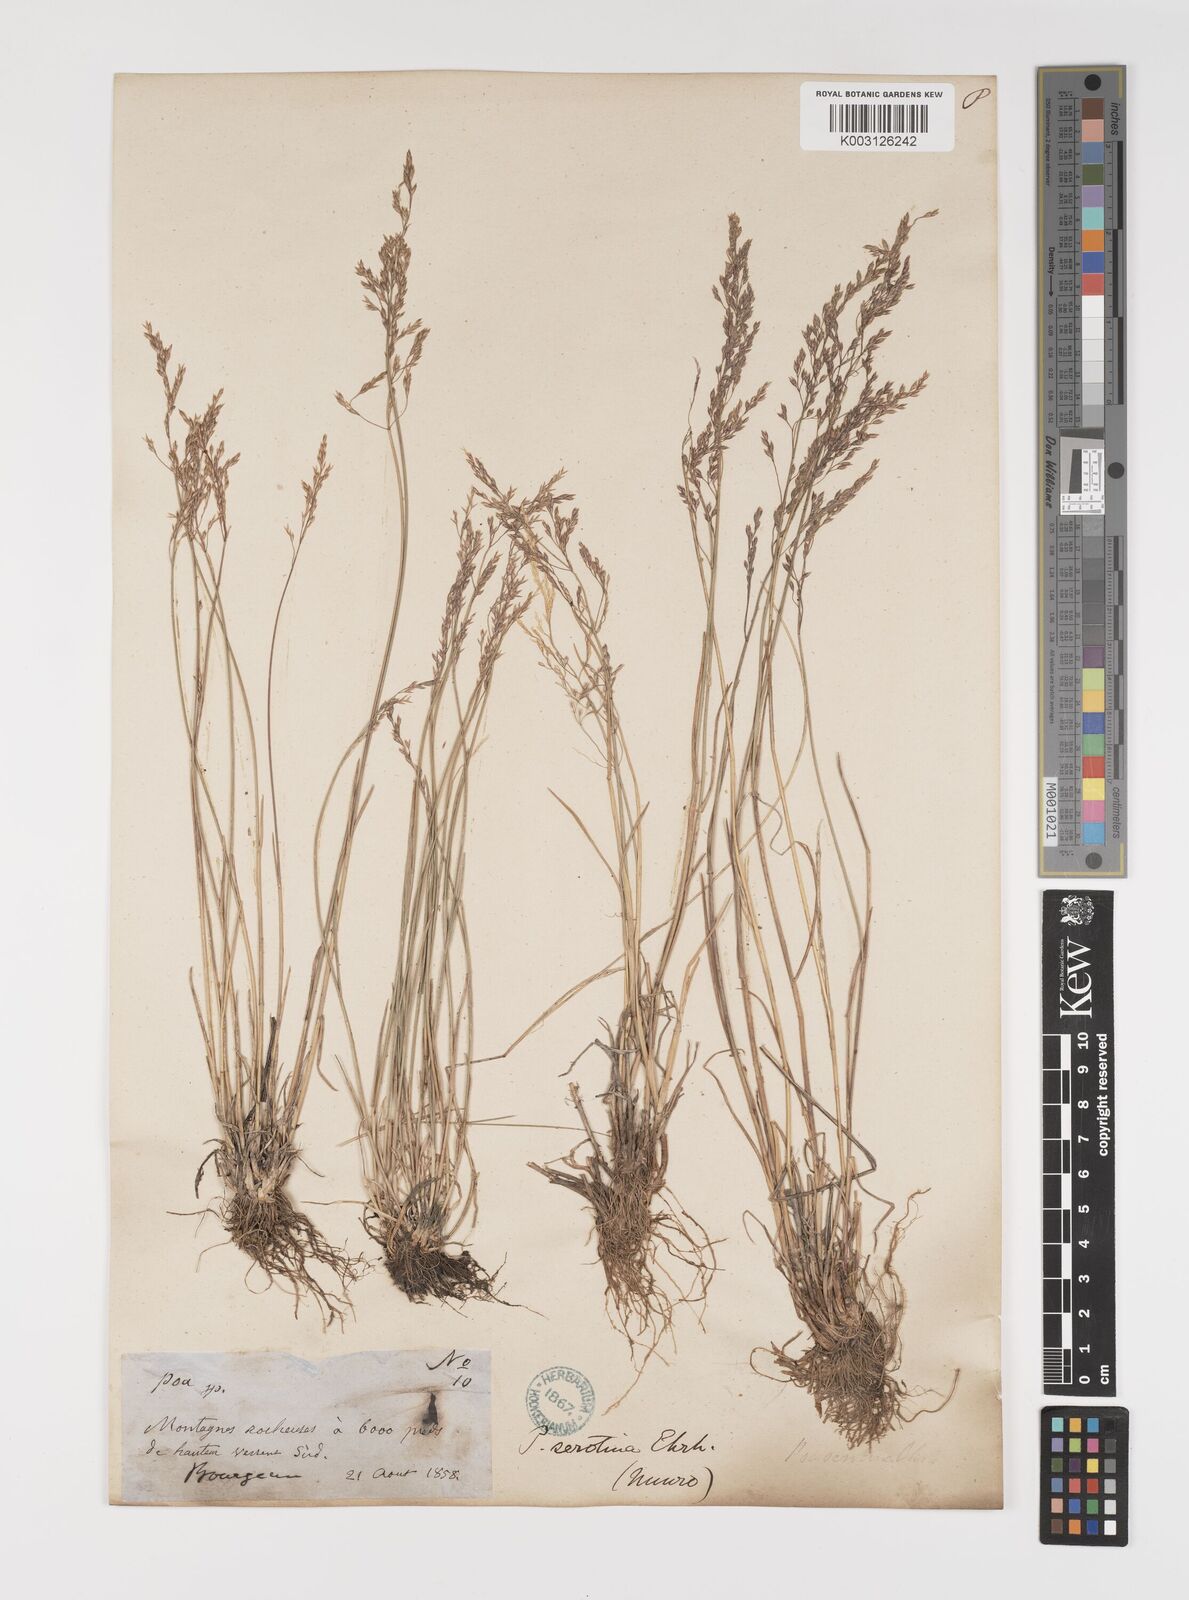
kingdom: Plantae
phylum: Tracheophyta
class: Liliopsida
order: Poales
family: Poaceae
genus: Poa
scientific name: Poa palustris
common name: Swamp meadow-grass
